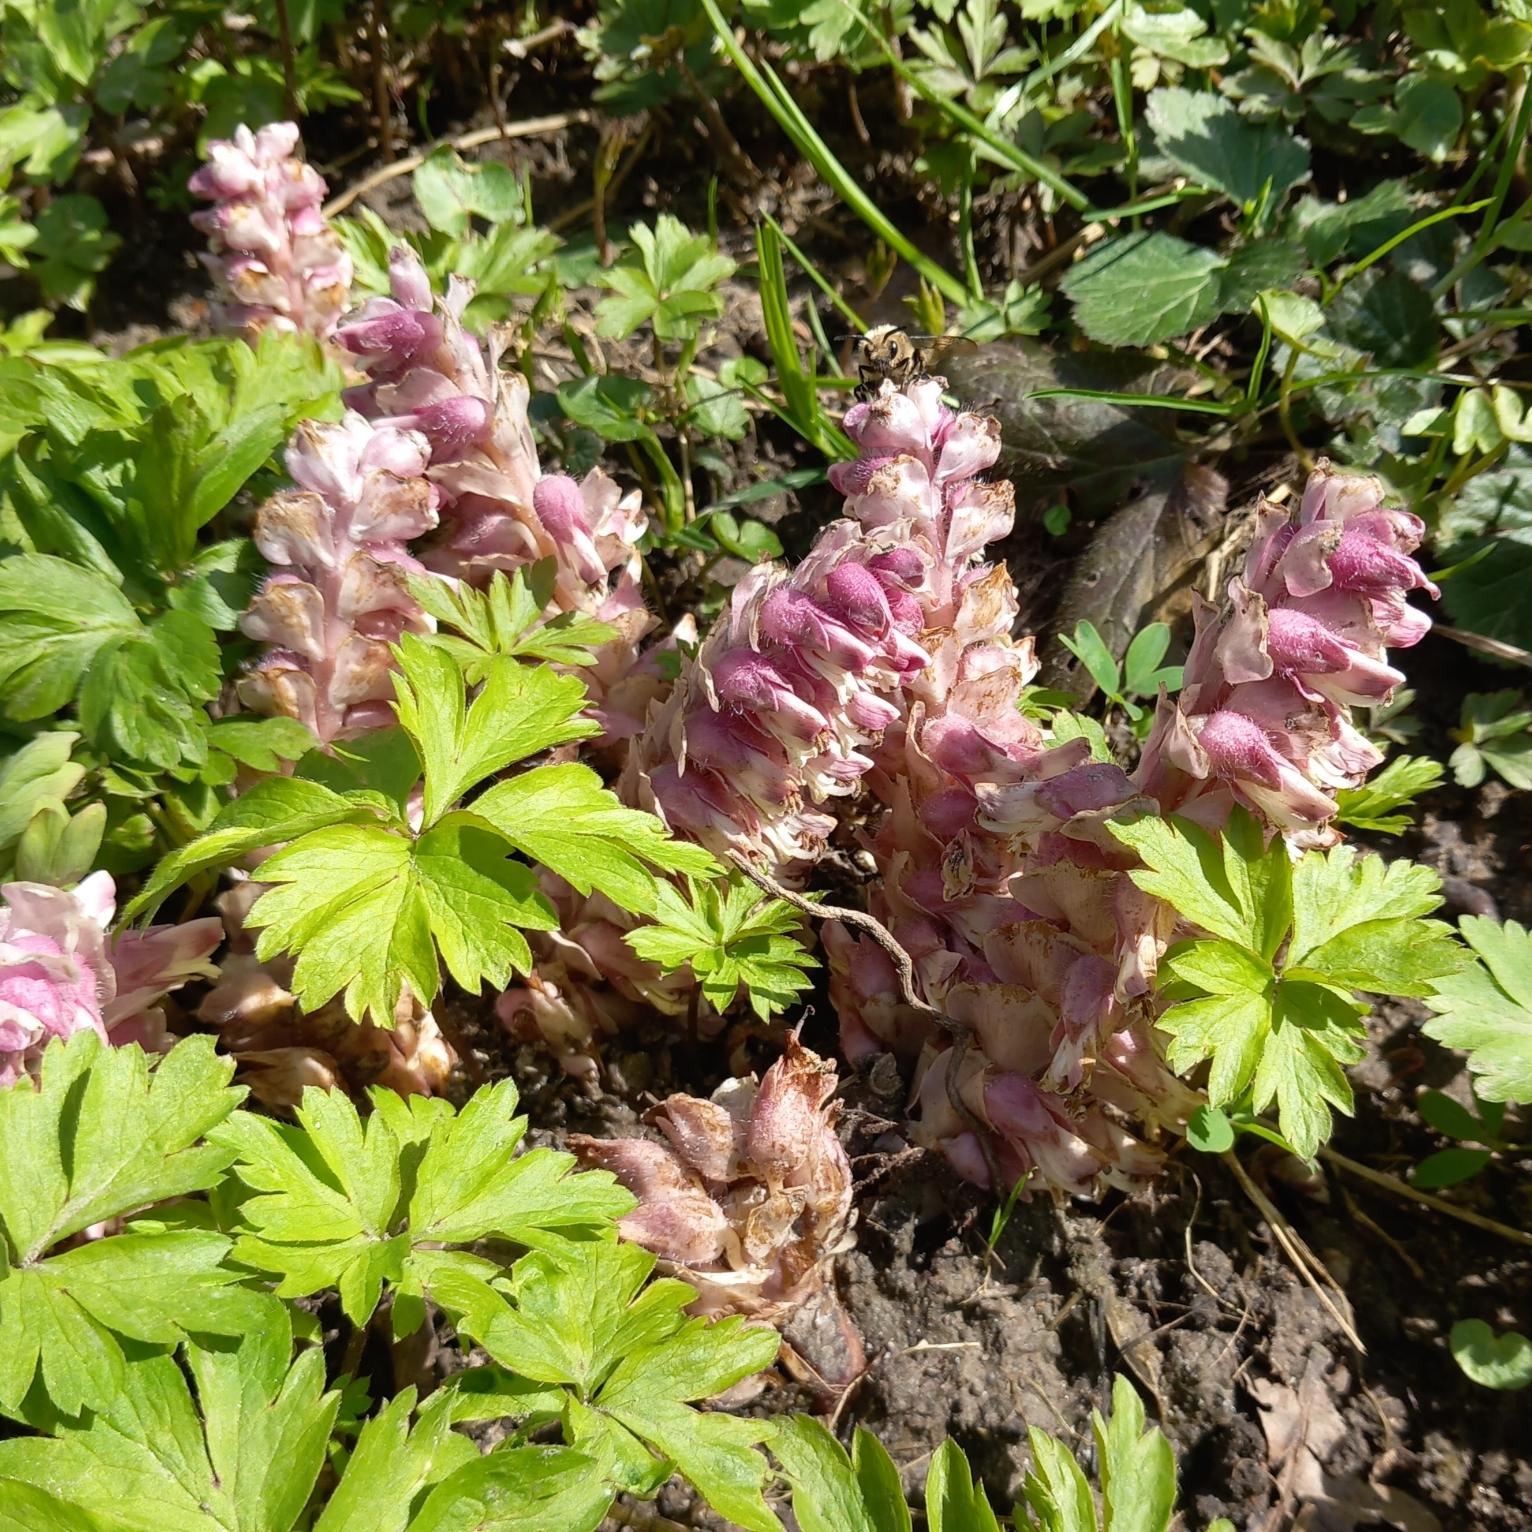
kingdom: Plantae
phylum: Tracheophyta
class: Magnoliopsida
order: Lamiales
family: Orobanchaceae
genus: Lathraea
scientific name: Lathraea squamaria
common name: Skælrod
